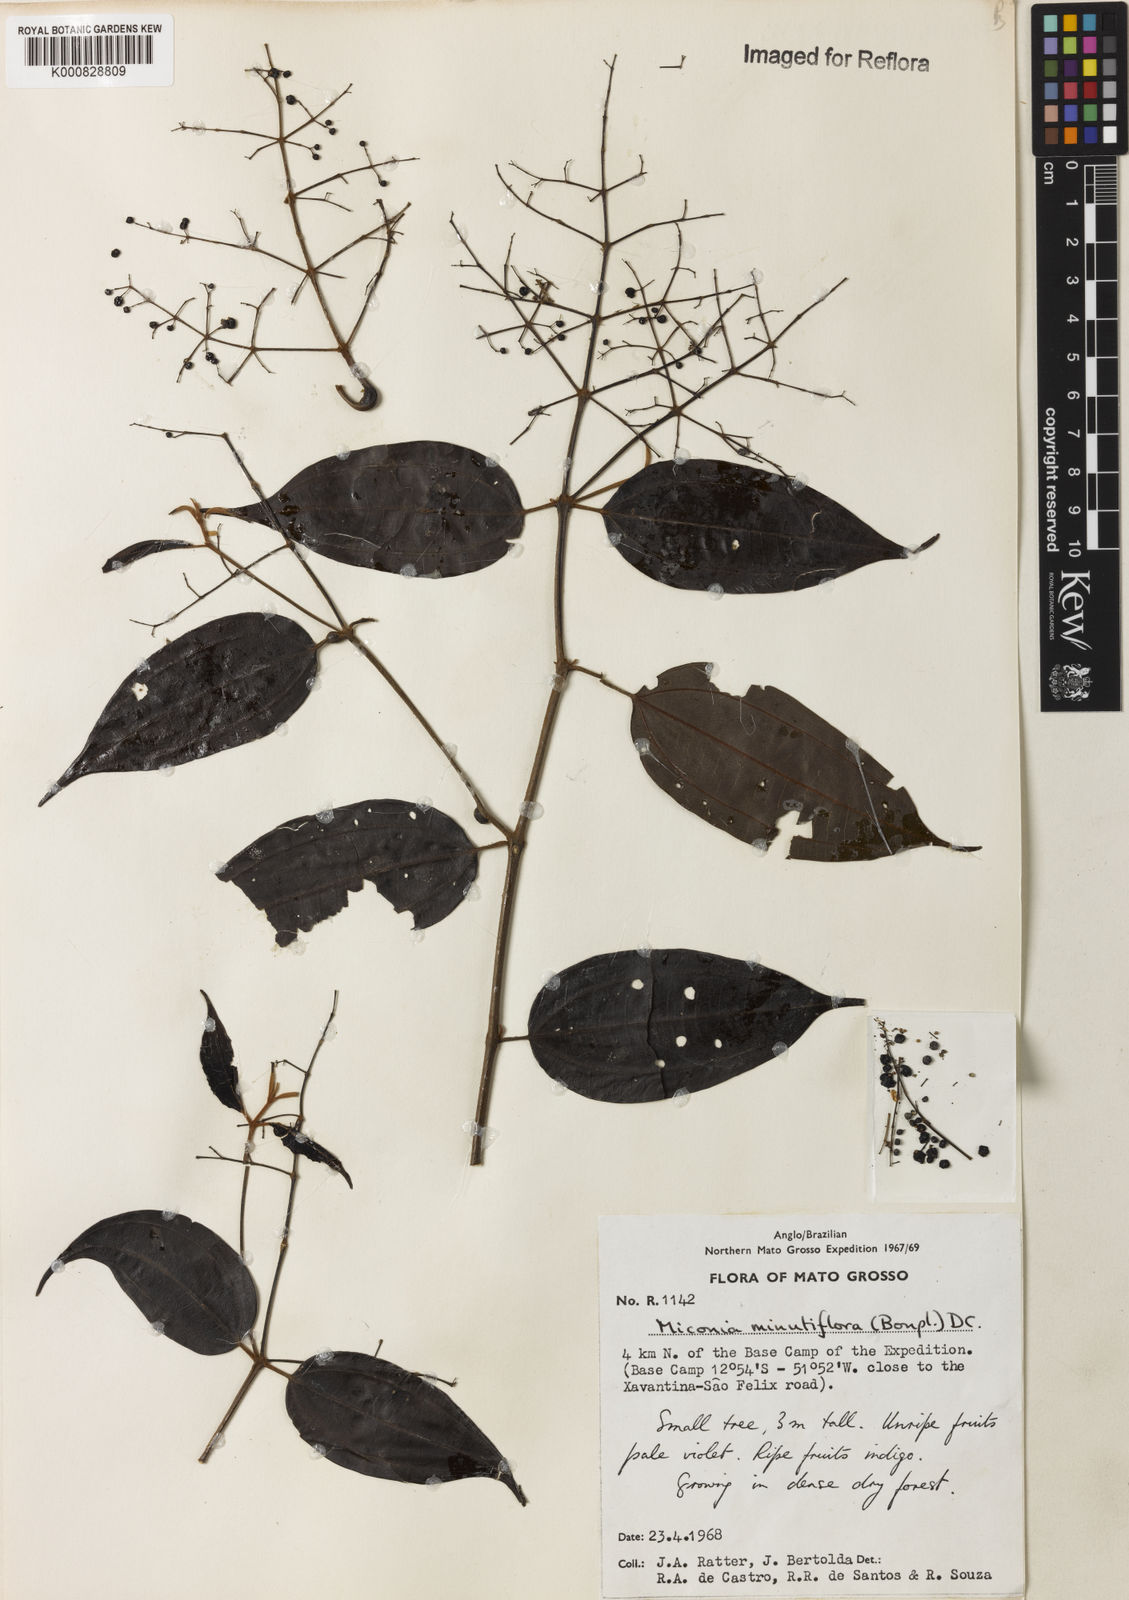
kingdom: Plantae
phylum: Tracheophyta
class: Magnoliopsida
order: Myrtales
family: Melastomataceae
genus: Miconia
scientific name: Miconia minutiflora
